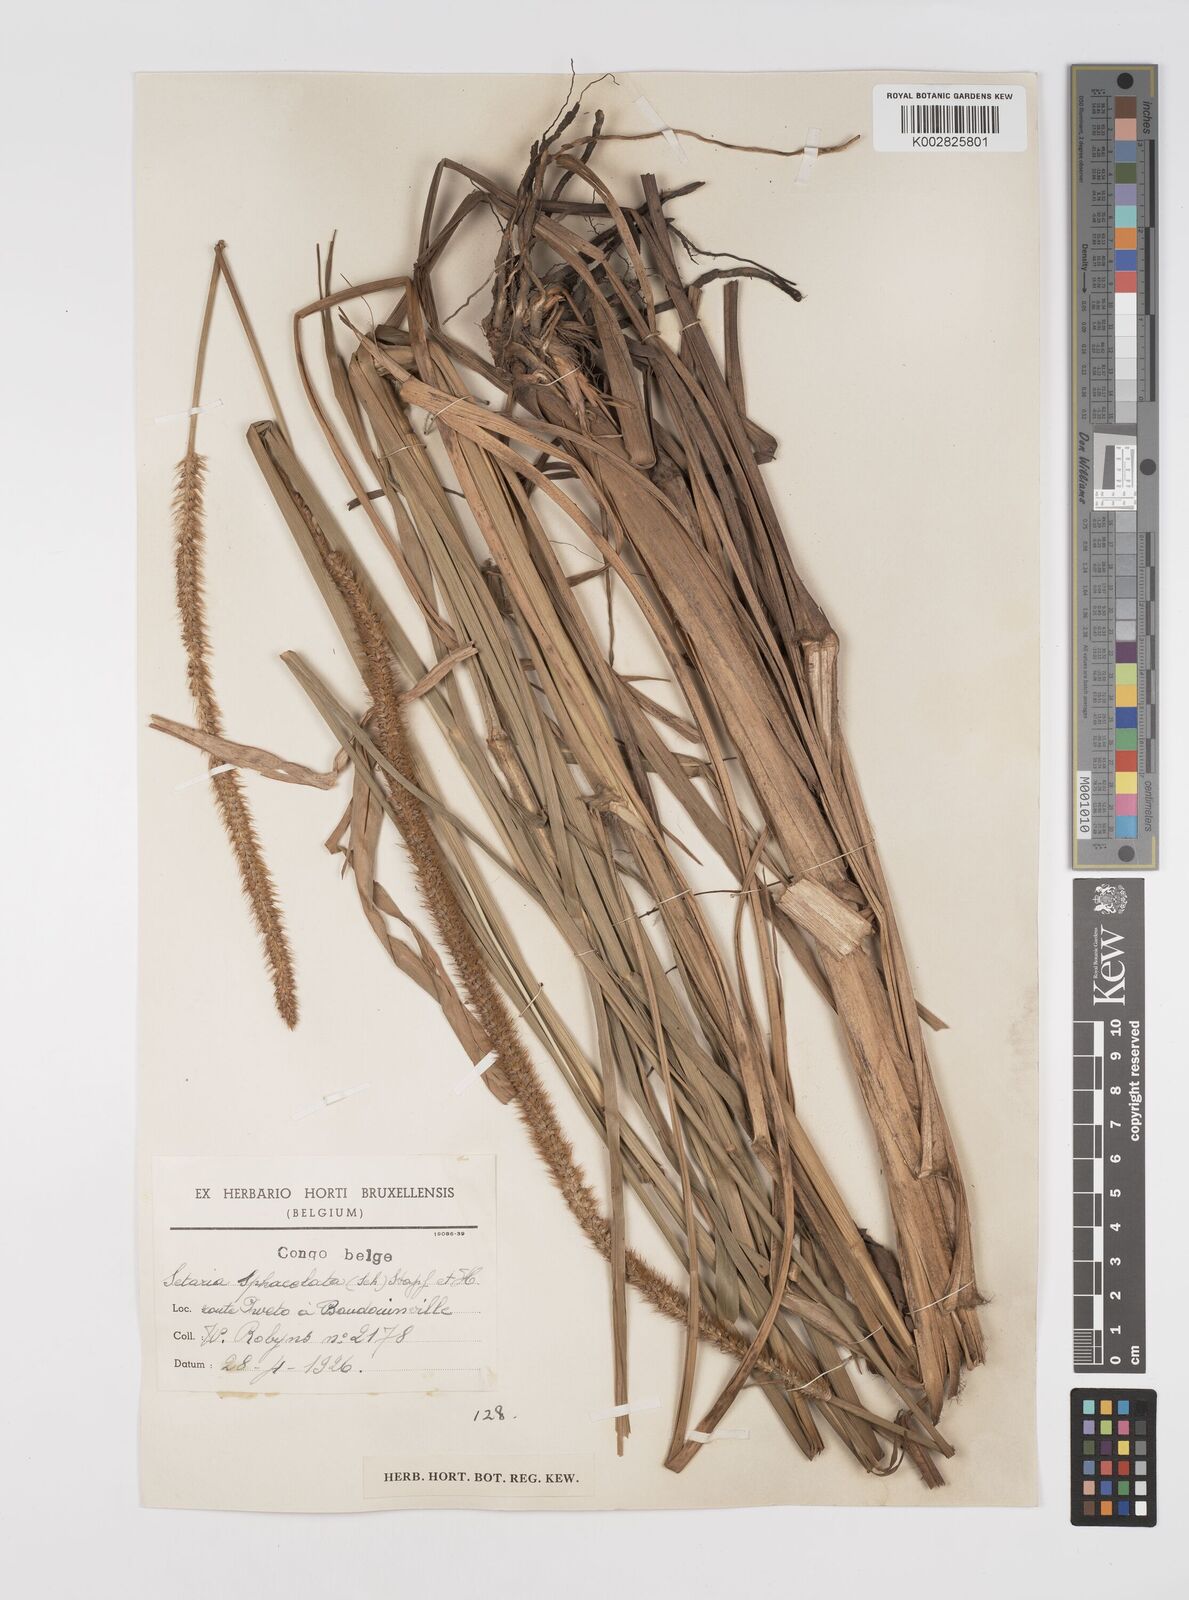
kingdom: Plantae
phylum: Tracheophyta
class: Liliopsida
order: Poales
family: Poaceae
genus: Setaria
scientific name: Setaria sphacelata
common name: African bristlegrass
